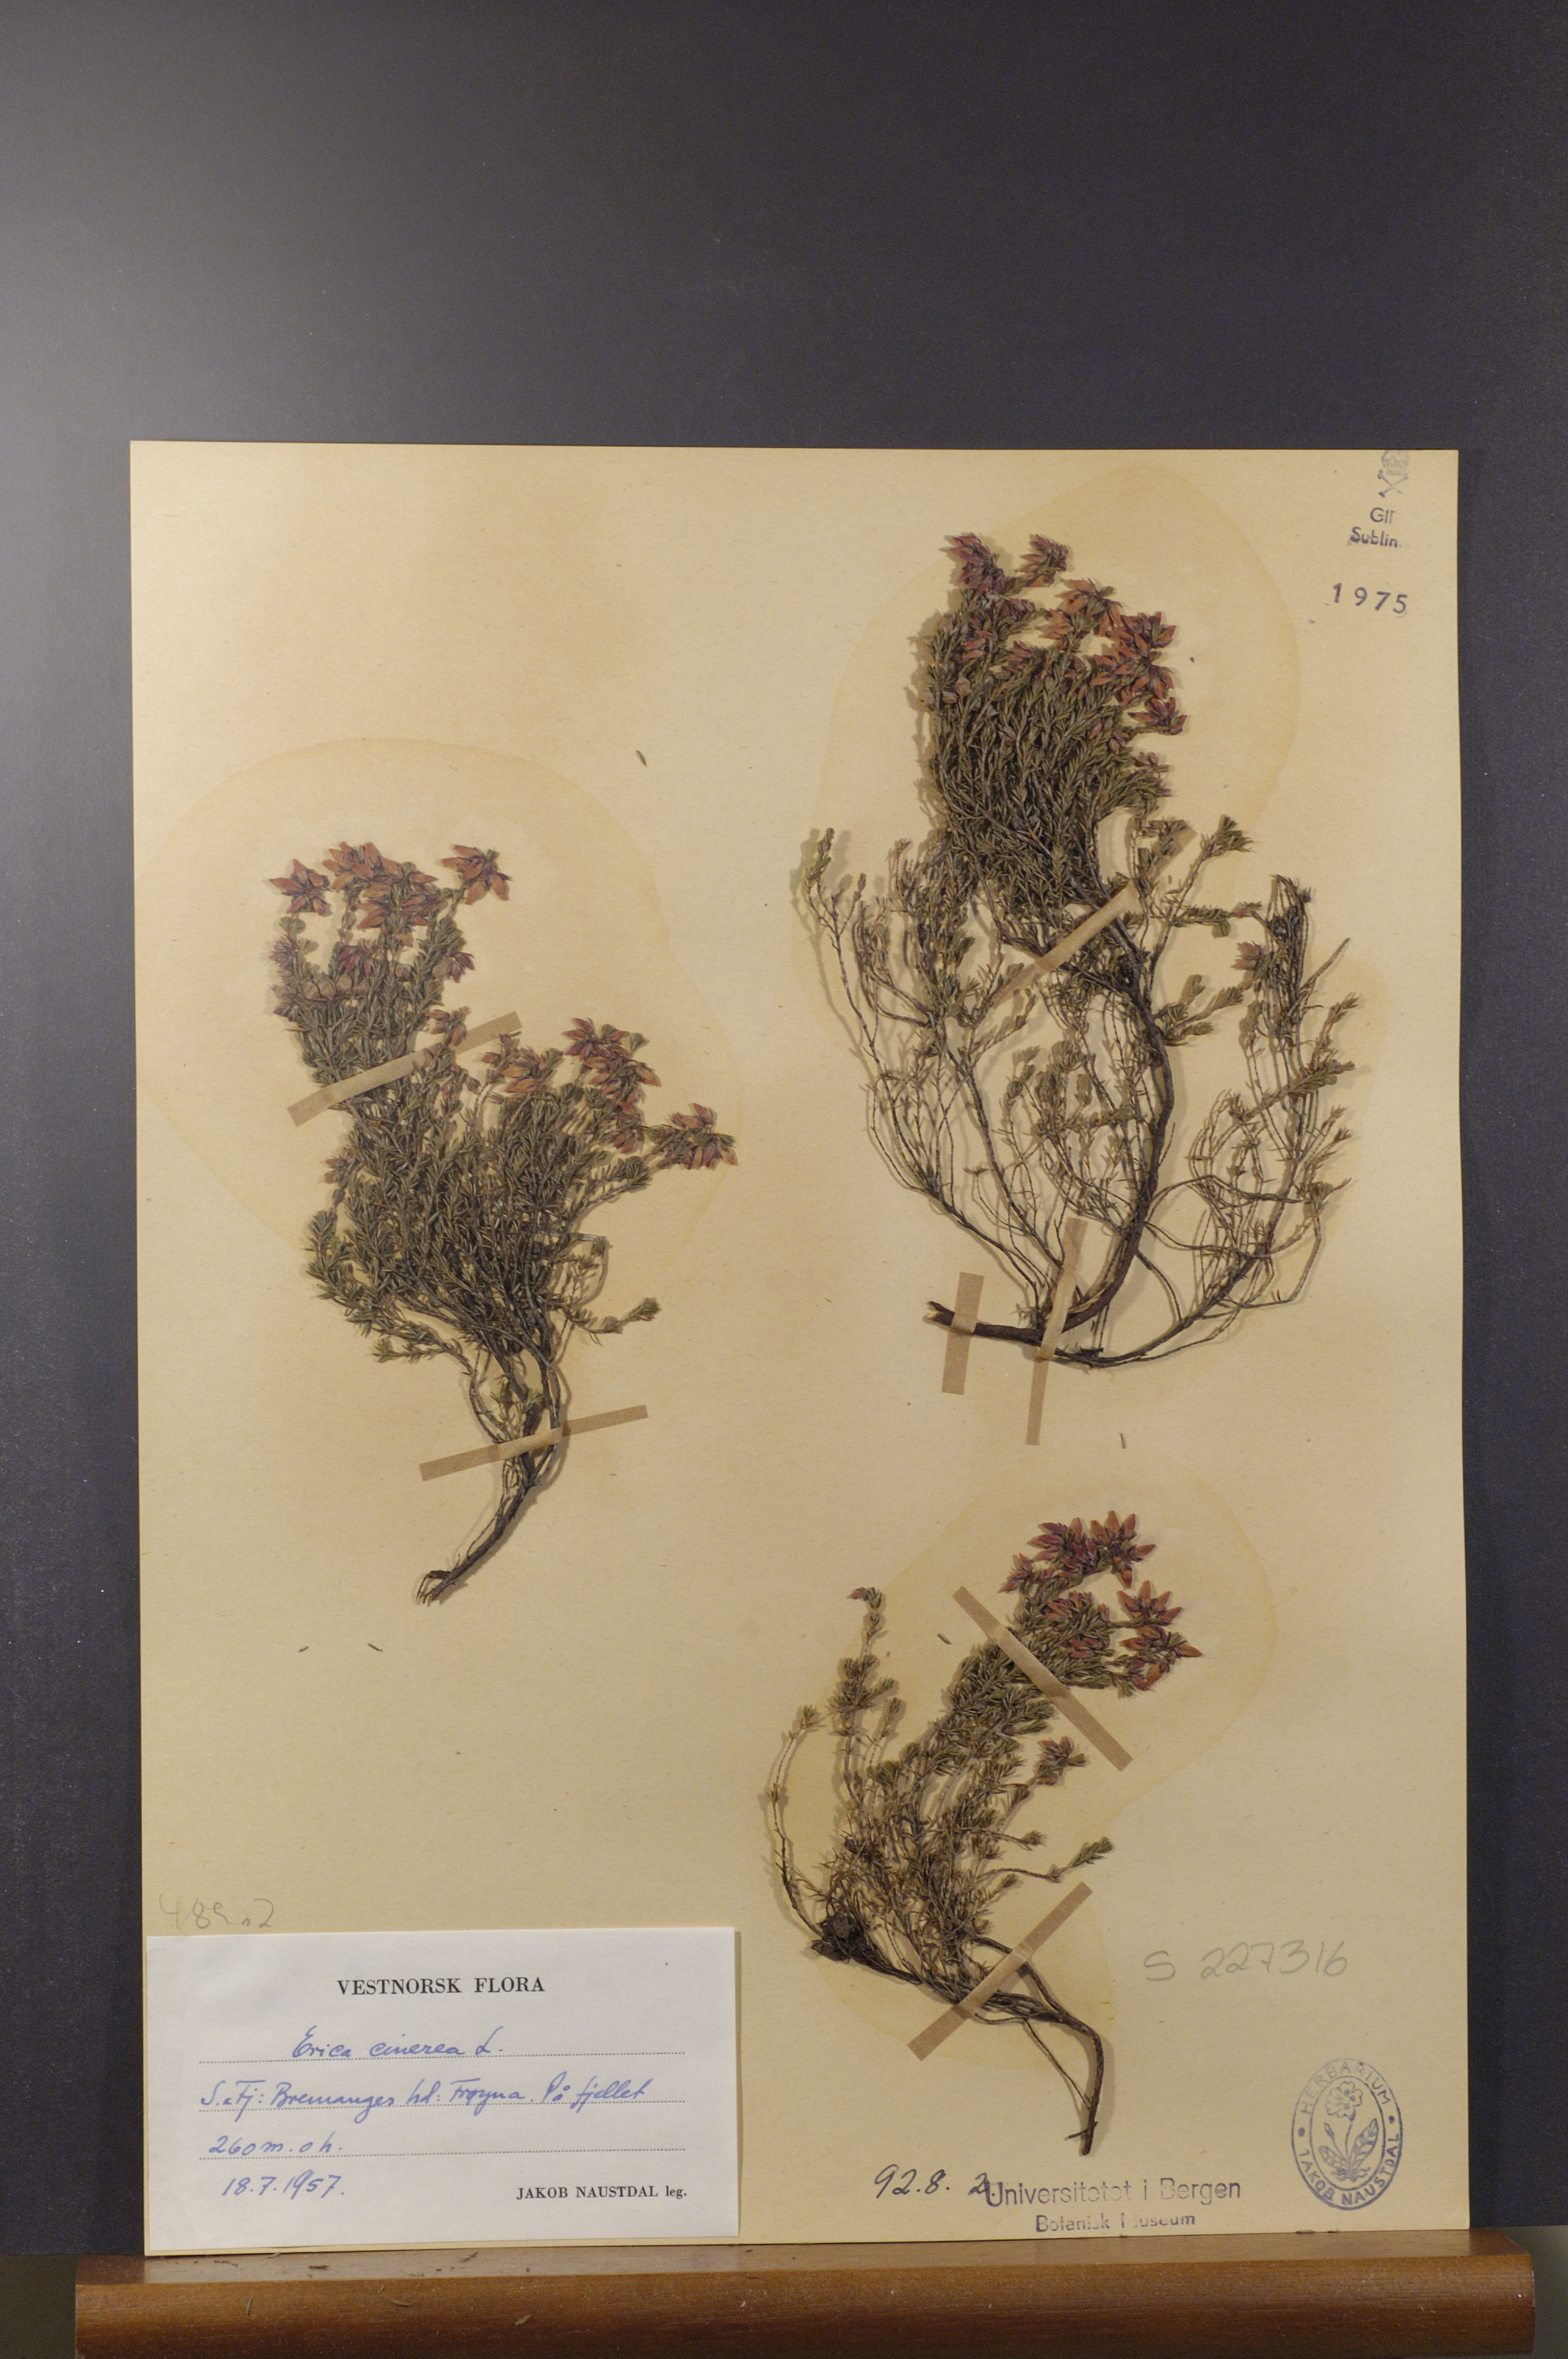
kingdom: Plantae
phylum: Tracheophyta
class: Magnoliopsida
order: Ericales
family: Ericaceae
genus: Erica
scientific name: Erica cinerea
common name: Bell heather
